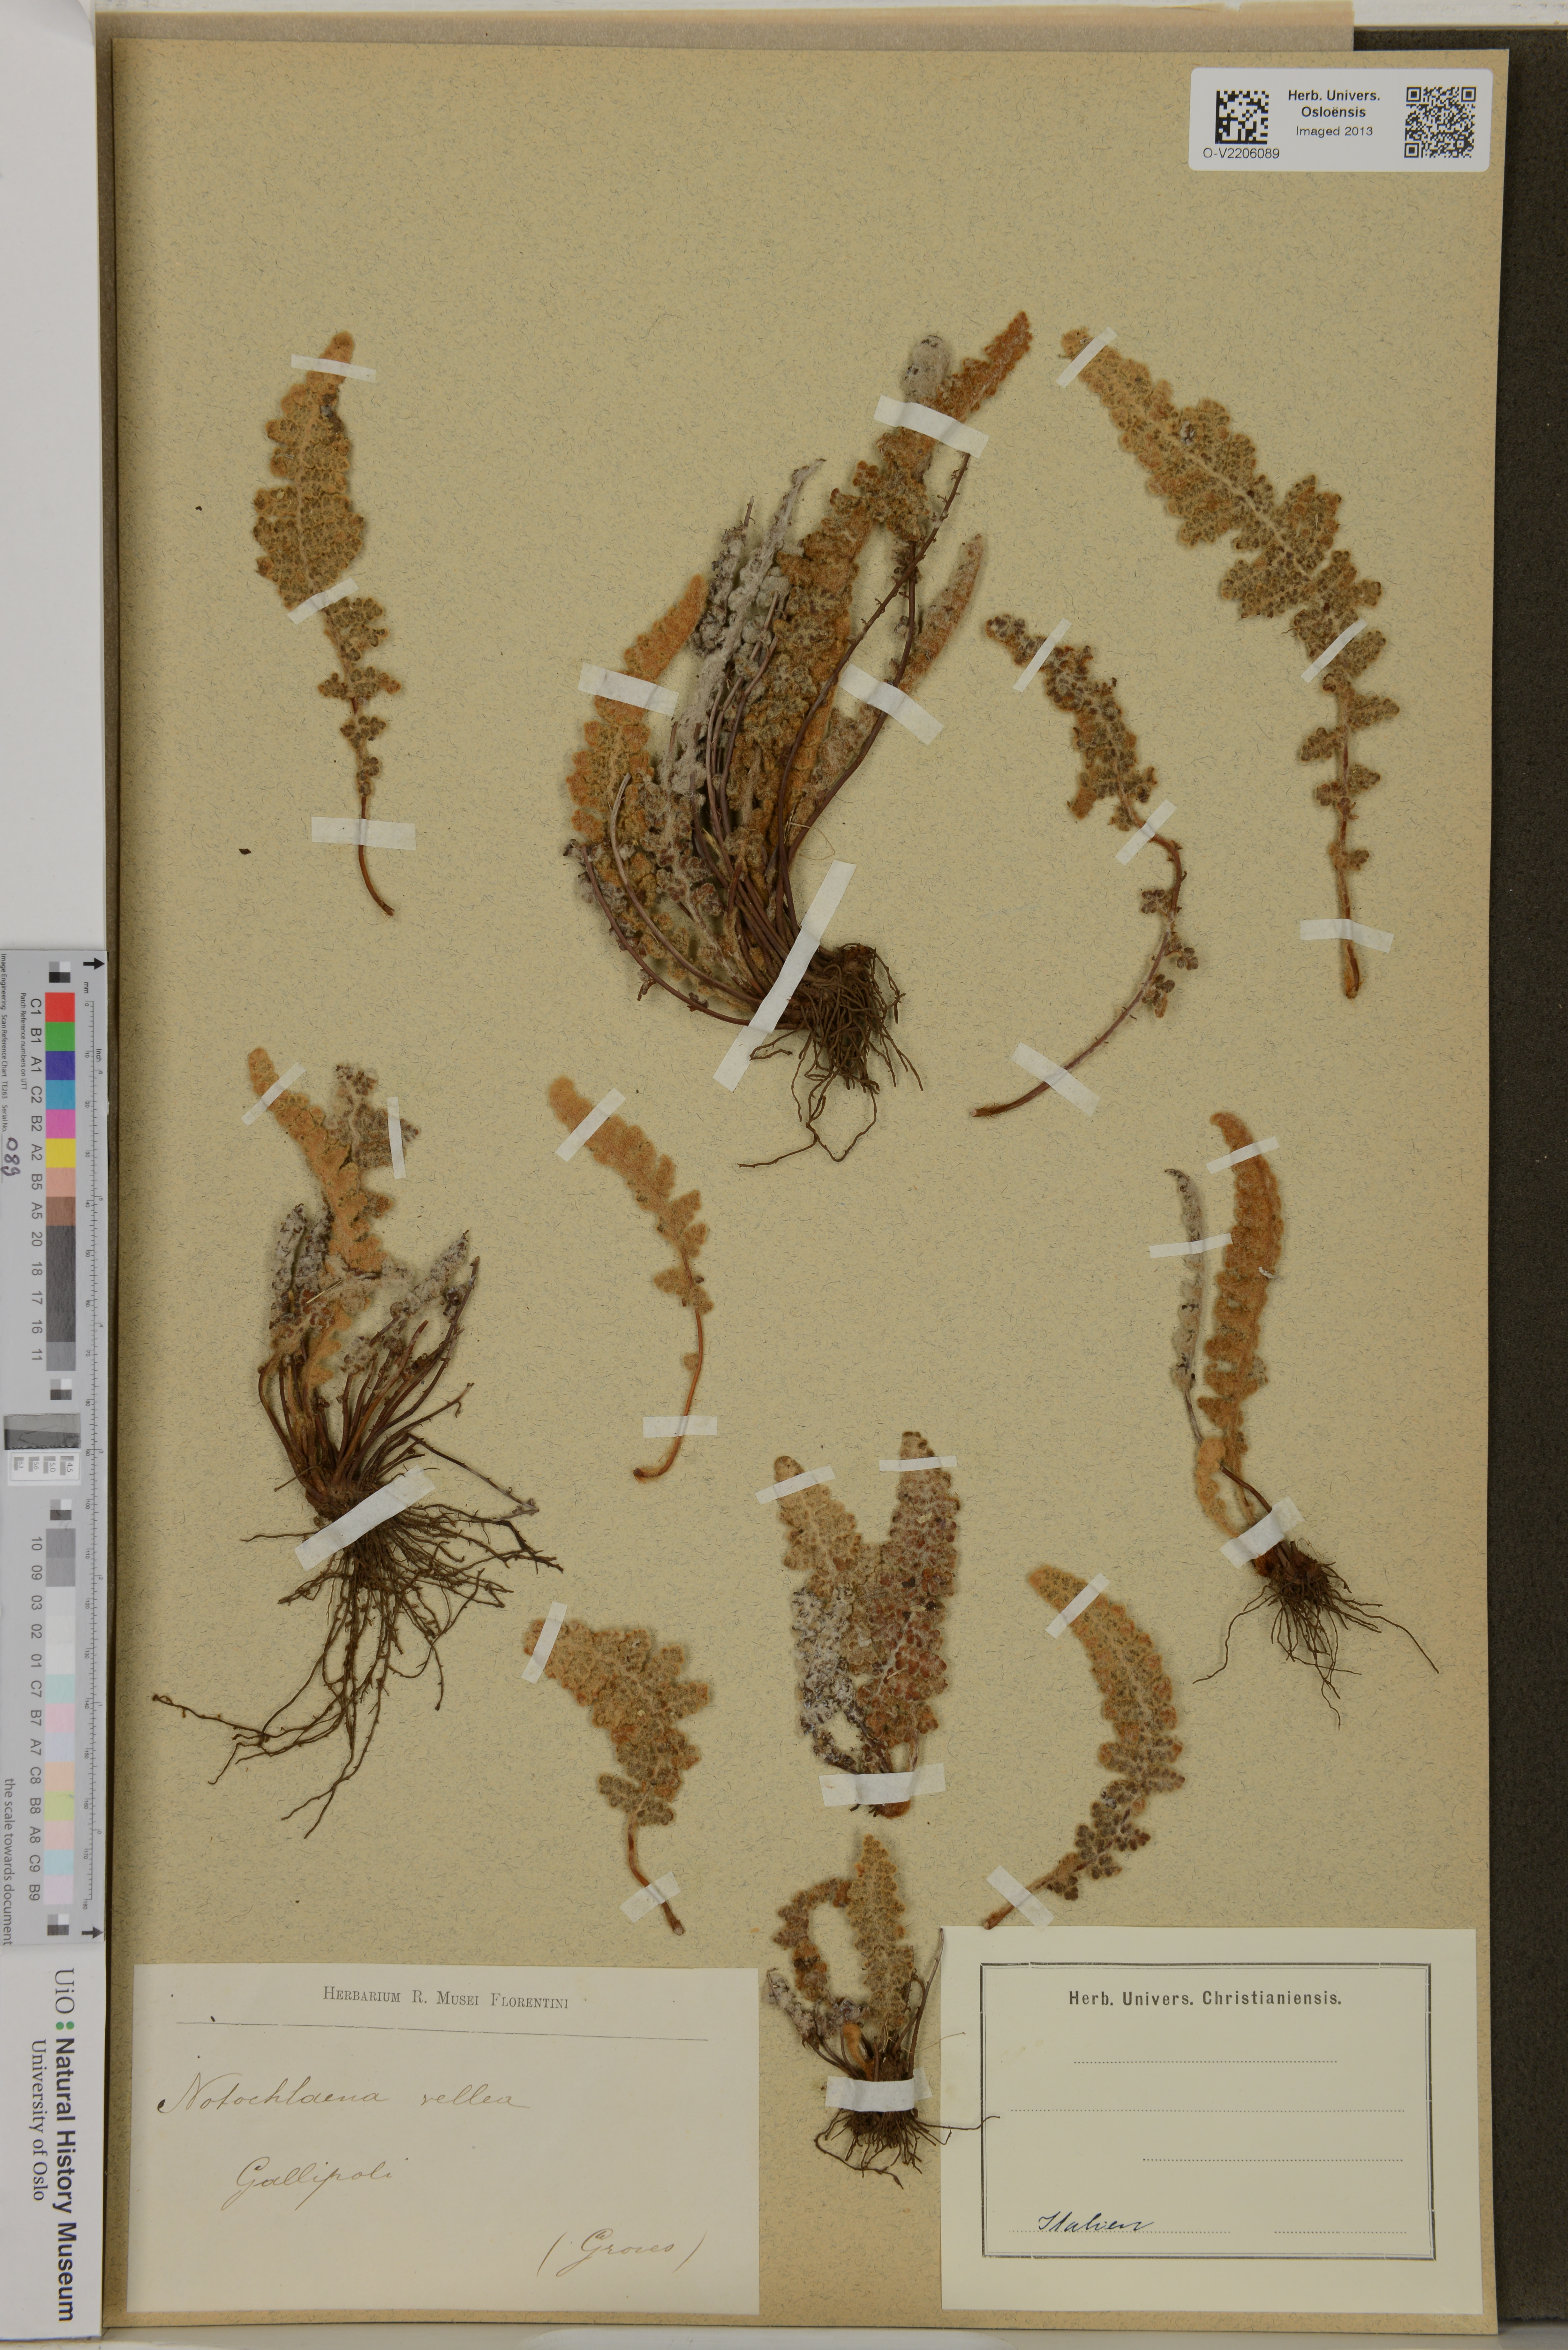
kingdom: Plantae
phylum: Tracheophyta
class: Polypodiopsida
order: Polypodiales
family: Pteridaceae
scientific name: Pteridaceae
